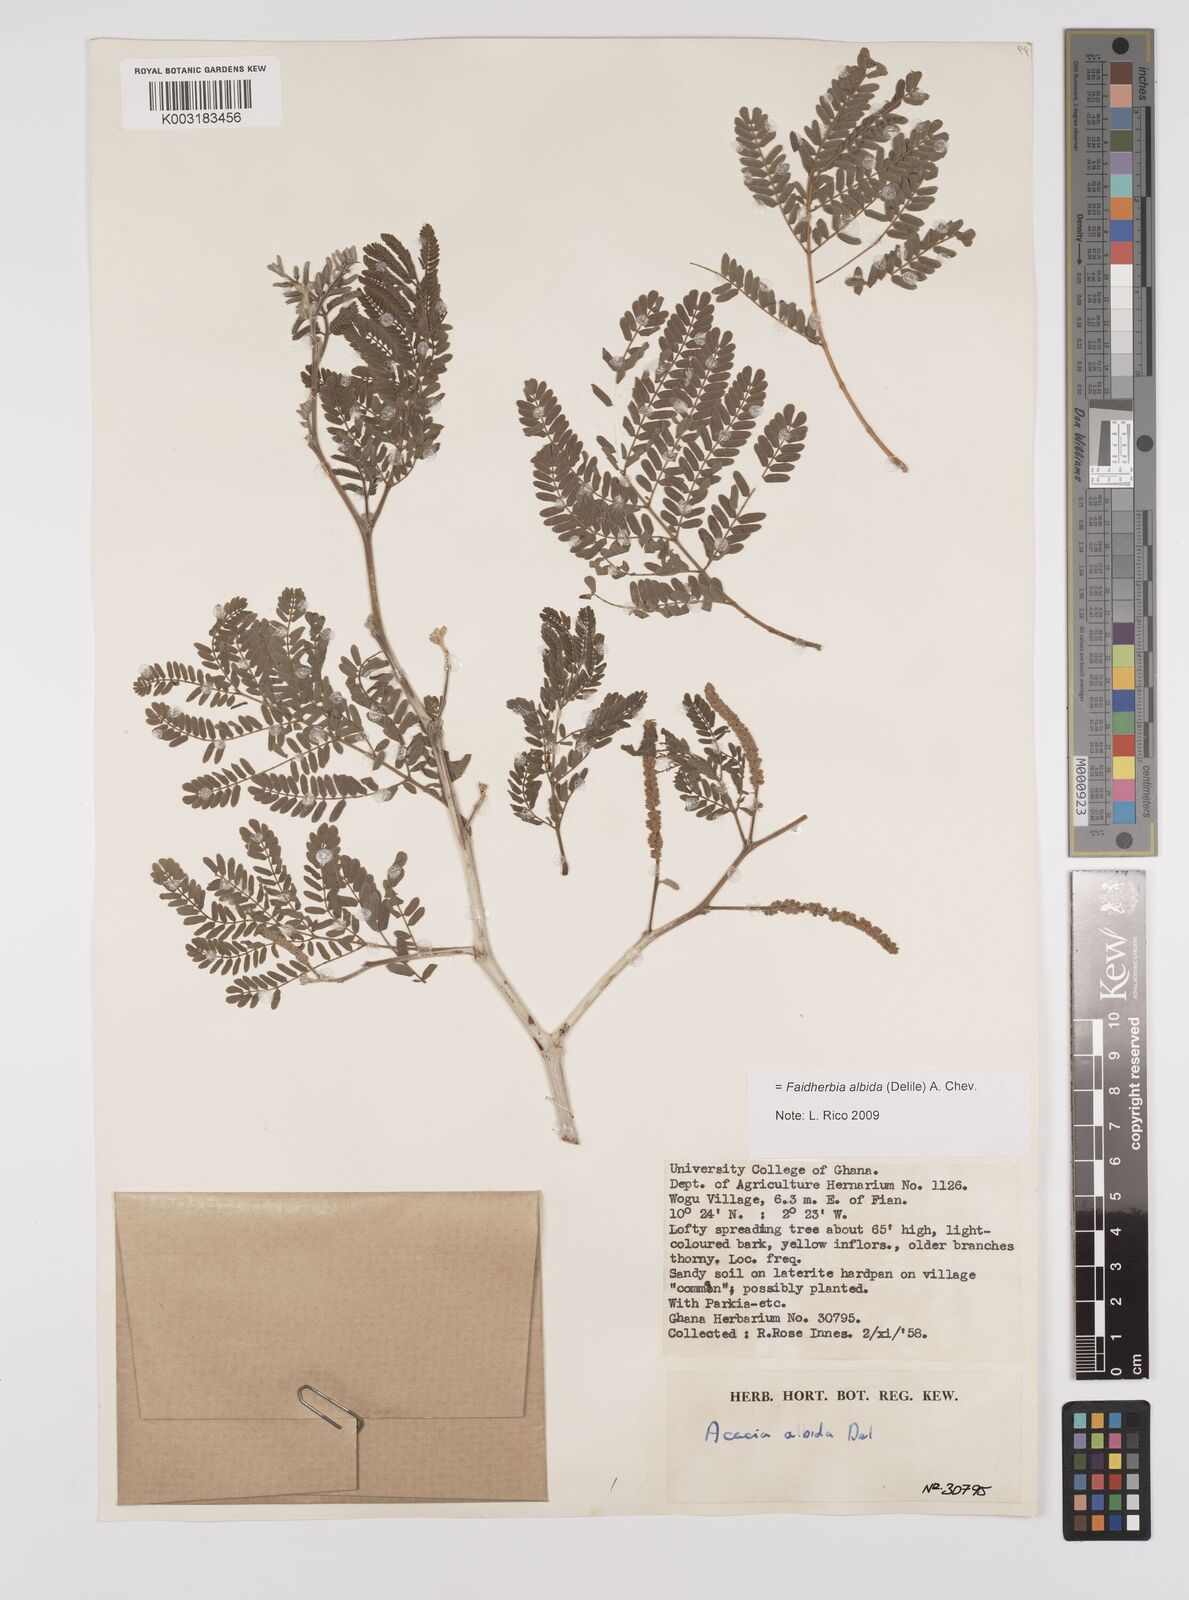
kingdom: Plantae
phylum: Tracheophyta
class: Magnoliopsida
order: Fabales
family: Fabaceae
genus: Faidherbia
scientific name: Faidherbia albida
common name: Anatree
